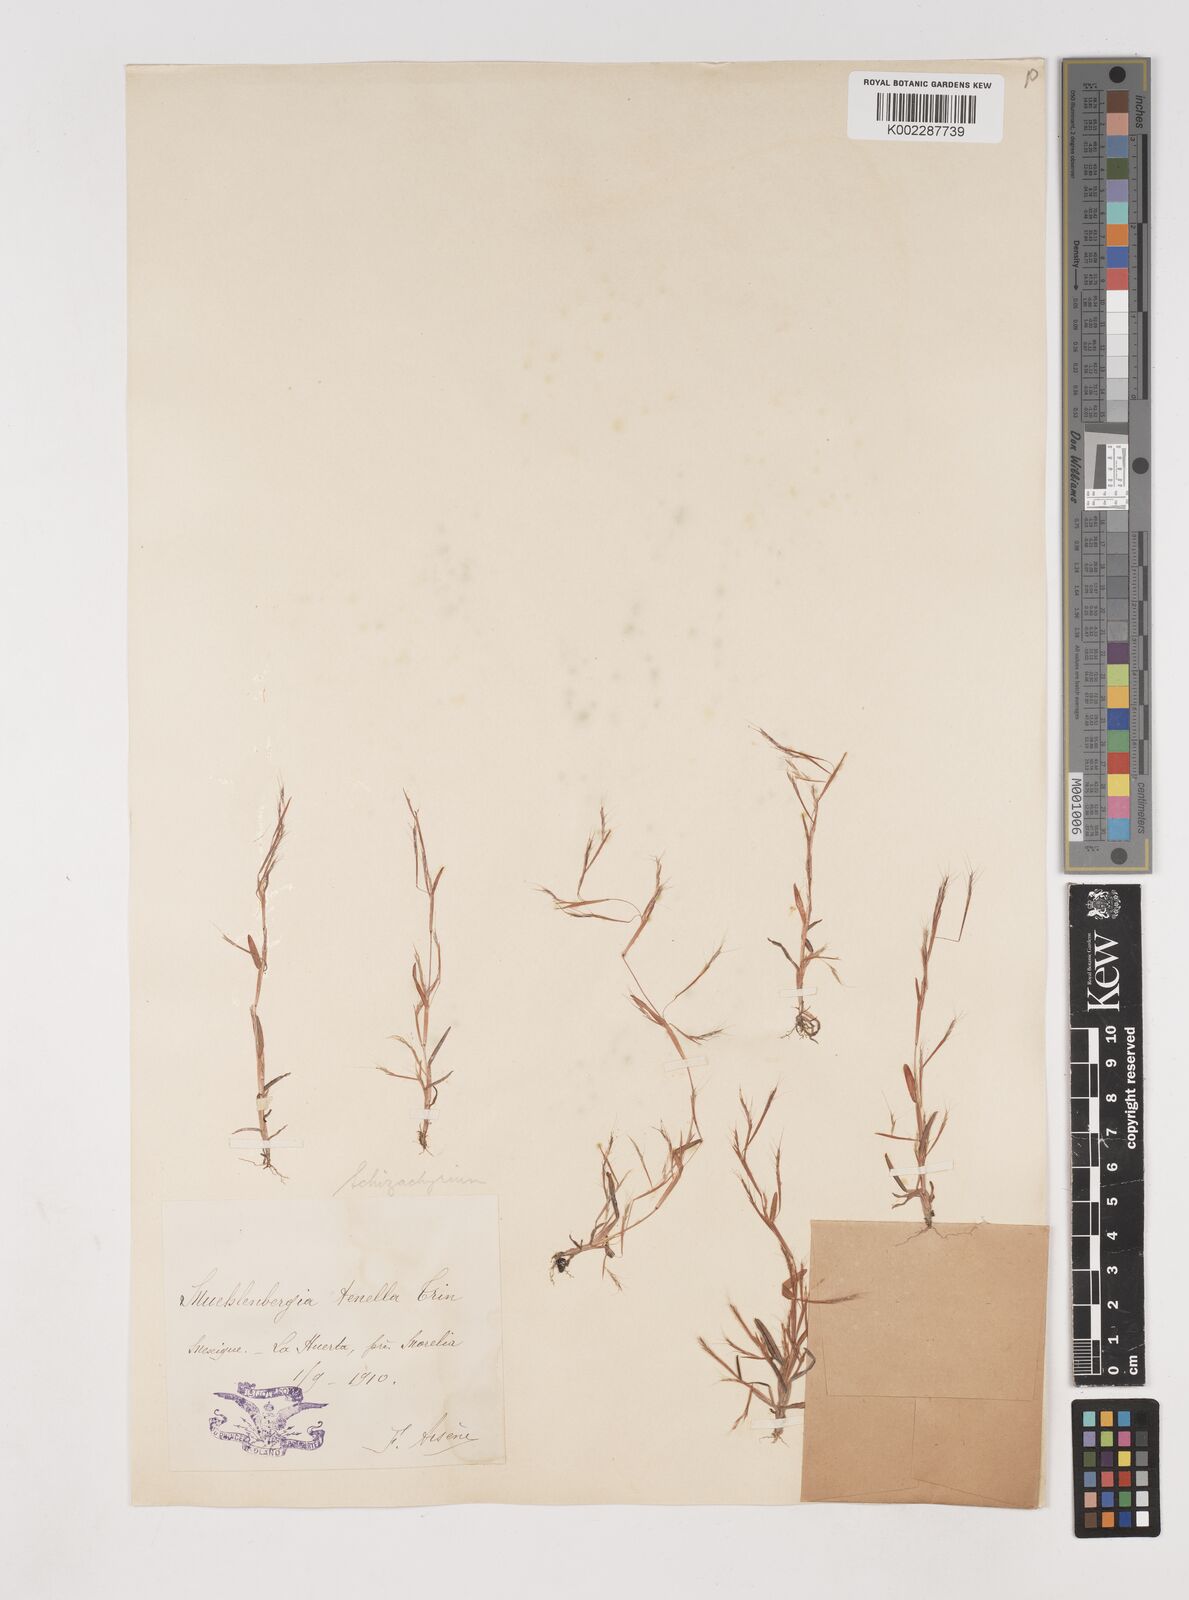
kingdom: Plantae
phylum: Tracheophyta
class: Liliopsida
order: Poales
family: Poaceae
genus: Schizachyrium
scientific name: Schizachyrium brevifolium
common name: Serillo dulce
